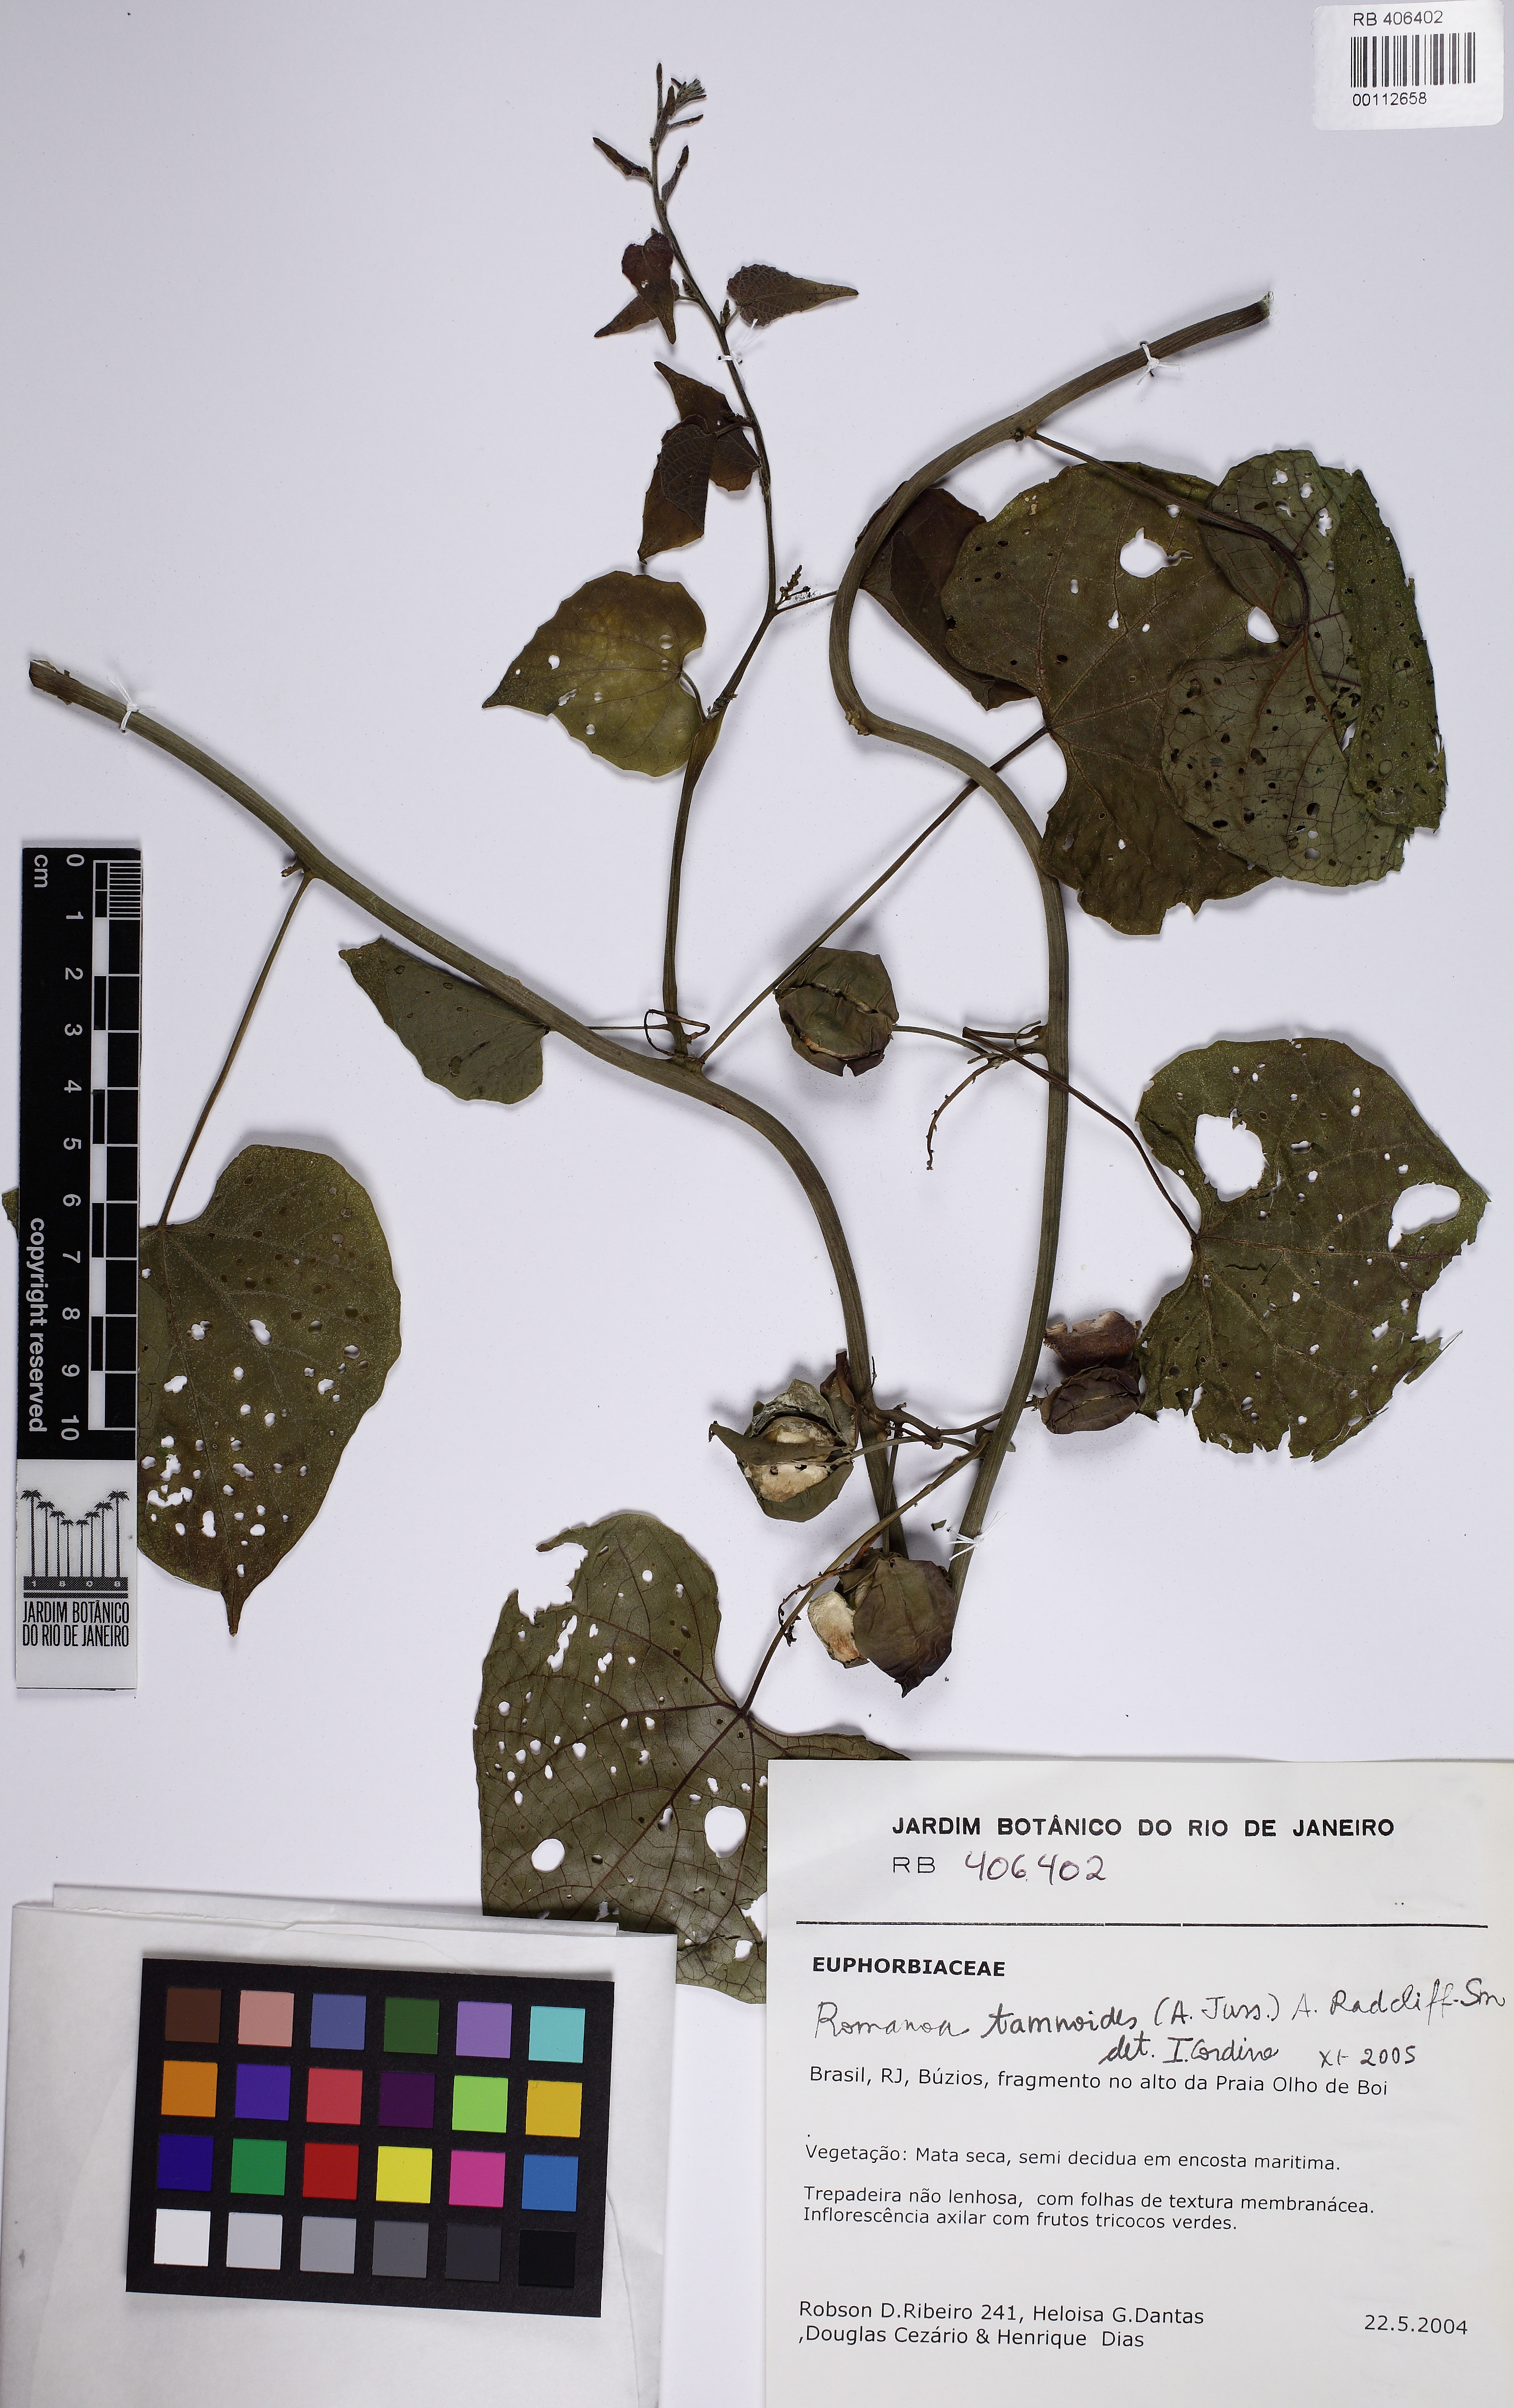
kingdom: Plantae
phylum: Tracheophyta
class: Magnoliopsida
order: Malpighiales
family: Euphorbiaceae
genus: Romanoa
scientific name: Romanoa tamnoides
